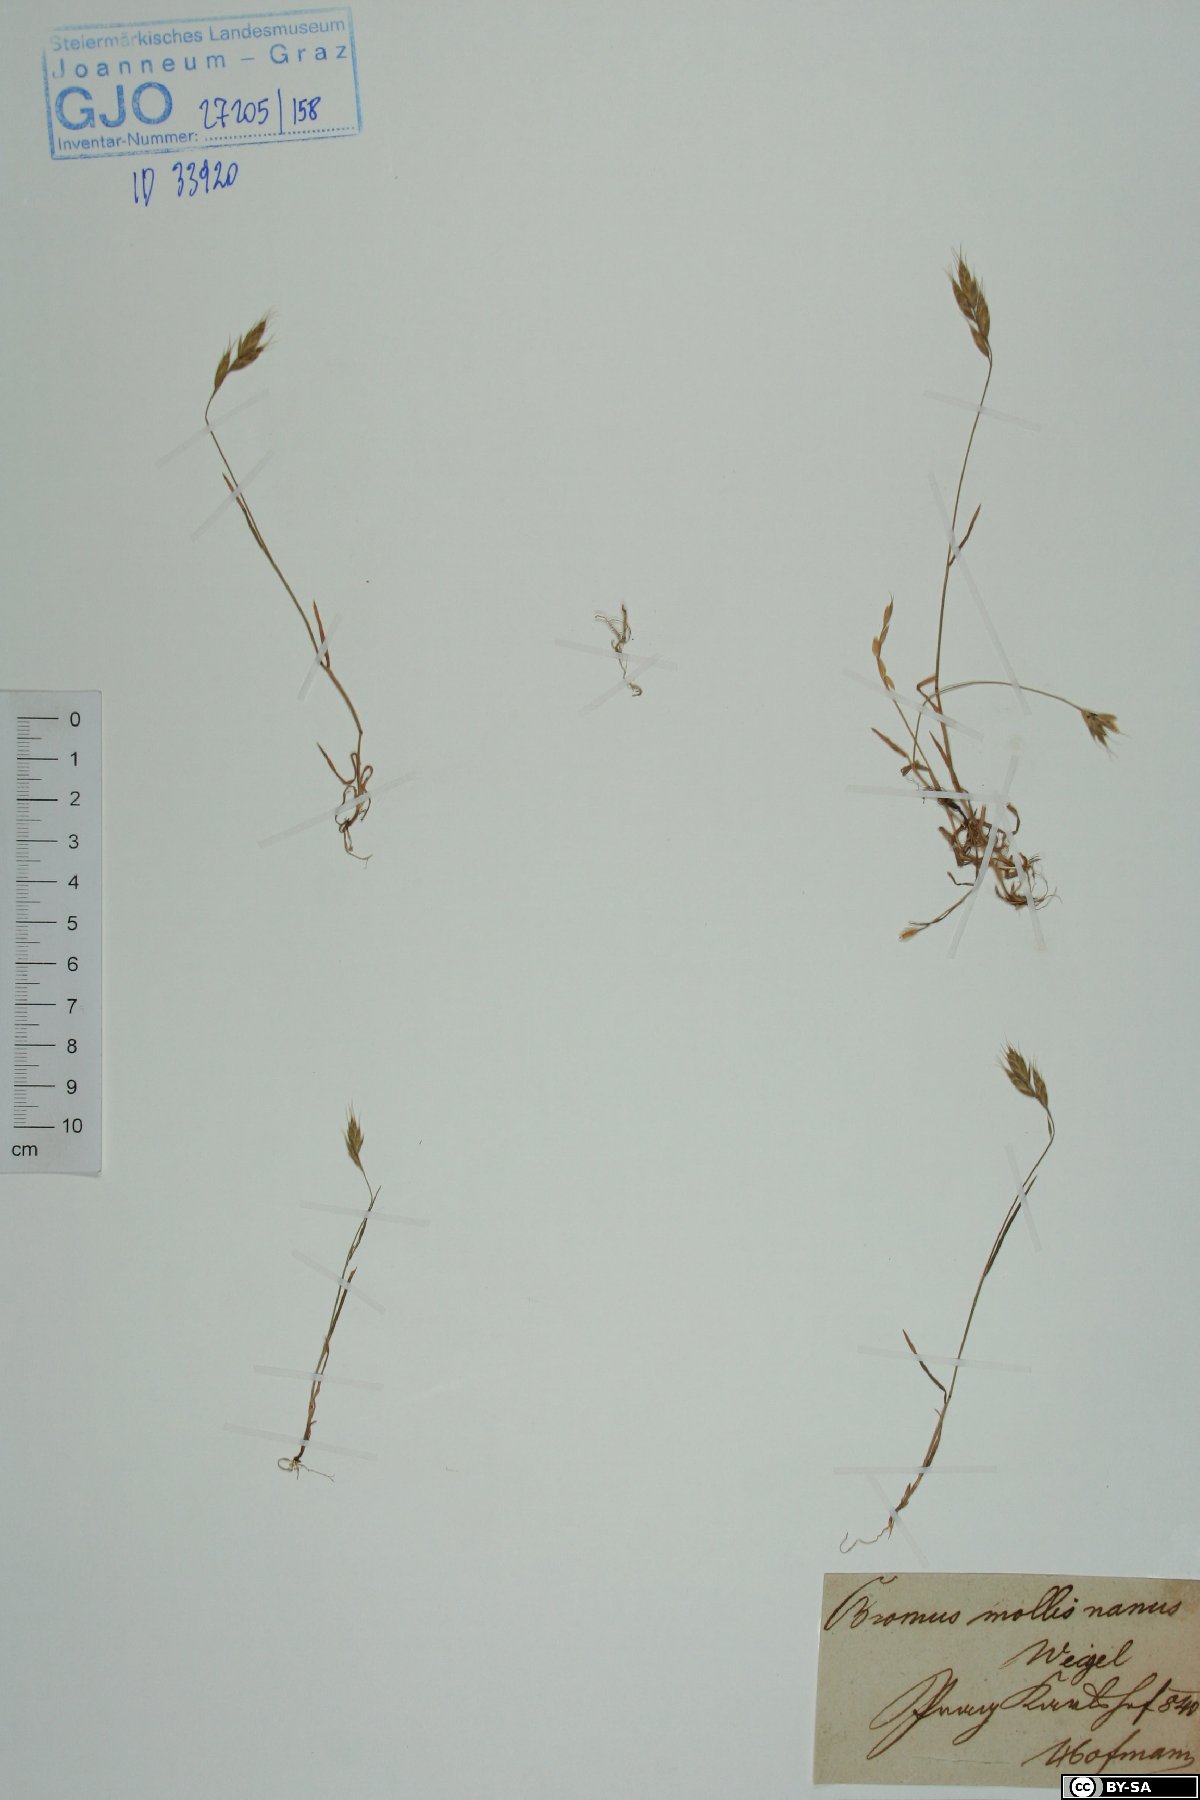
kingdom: Plantae
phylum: Tracheophyta
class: Liliopsida
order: Poales
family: Poaceae
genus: Bromus
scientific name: Bromus hordeaceus
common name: Soft brome
